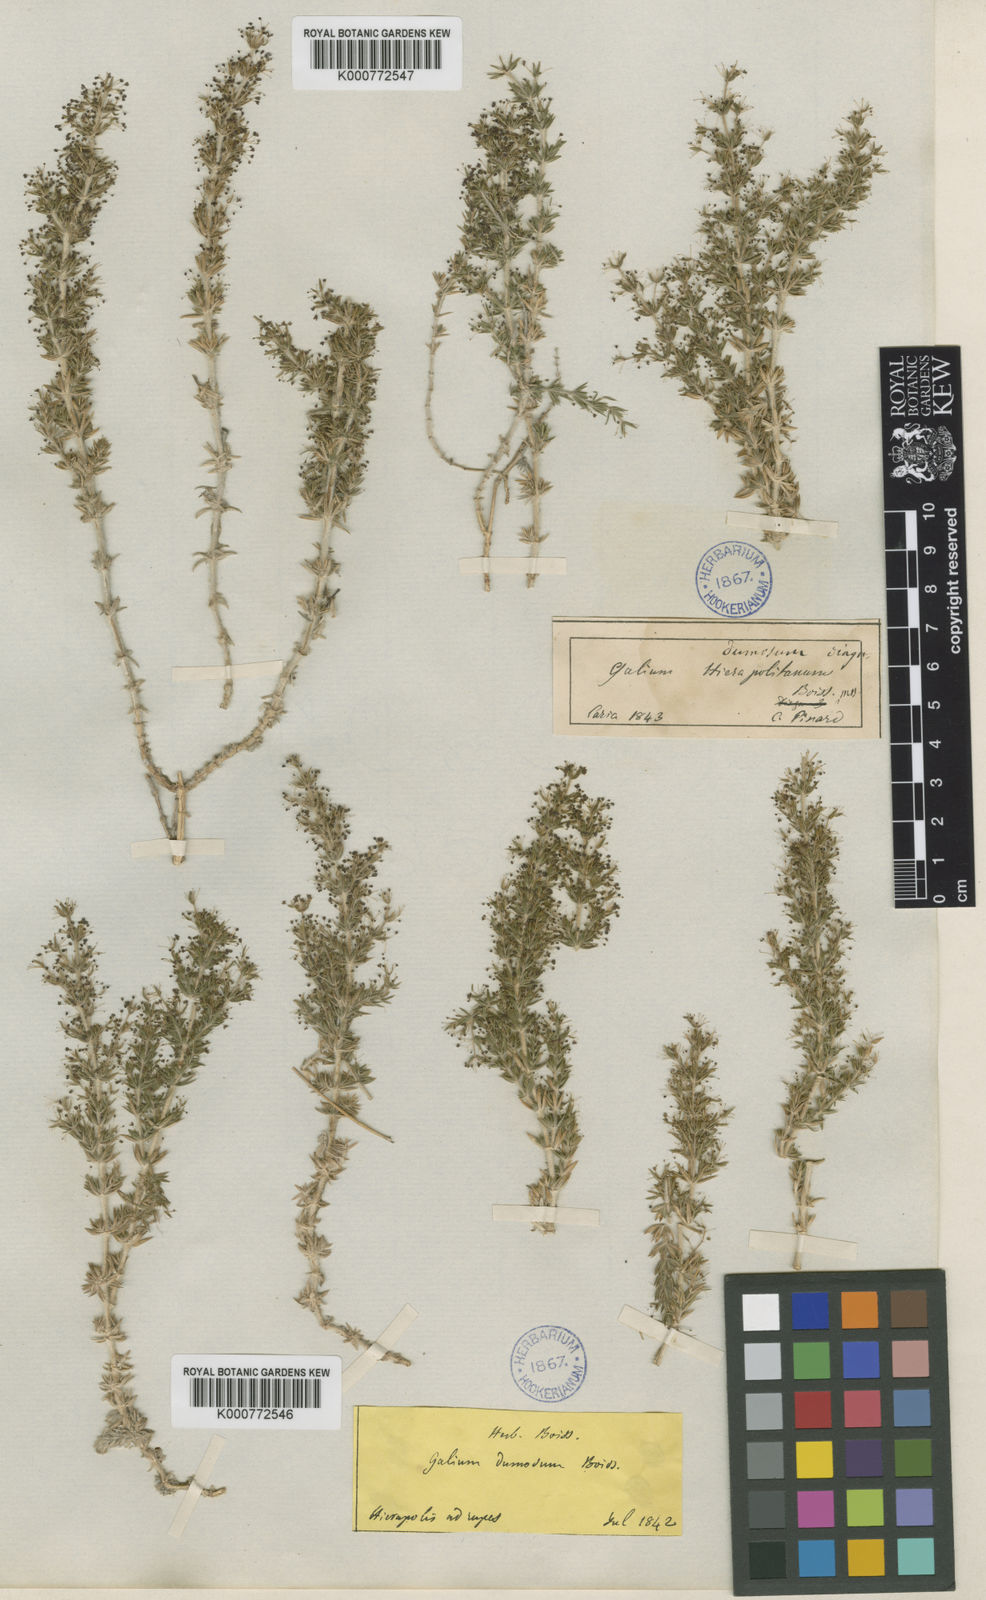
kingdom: Plantae
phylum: Tracheophyta
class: Magnoliopsida
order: Gentianales
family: Rubiaceae
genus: Galium
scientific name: Galium dumosum
